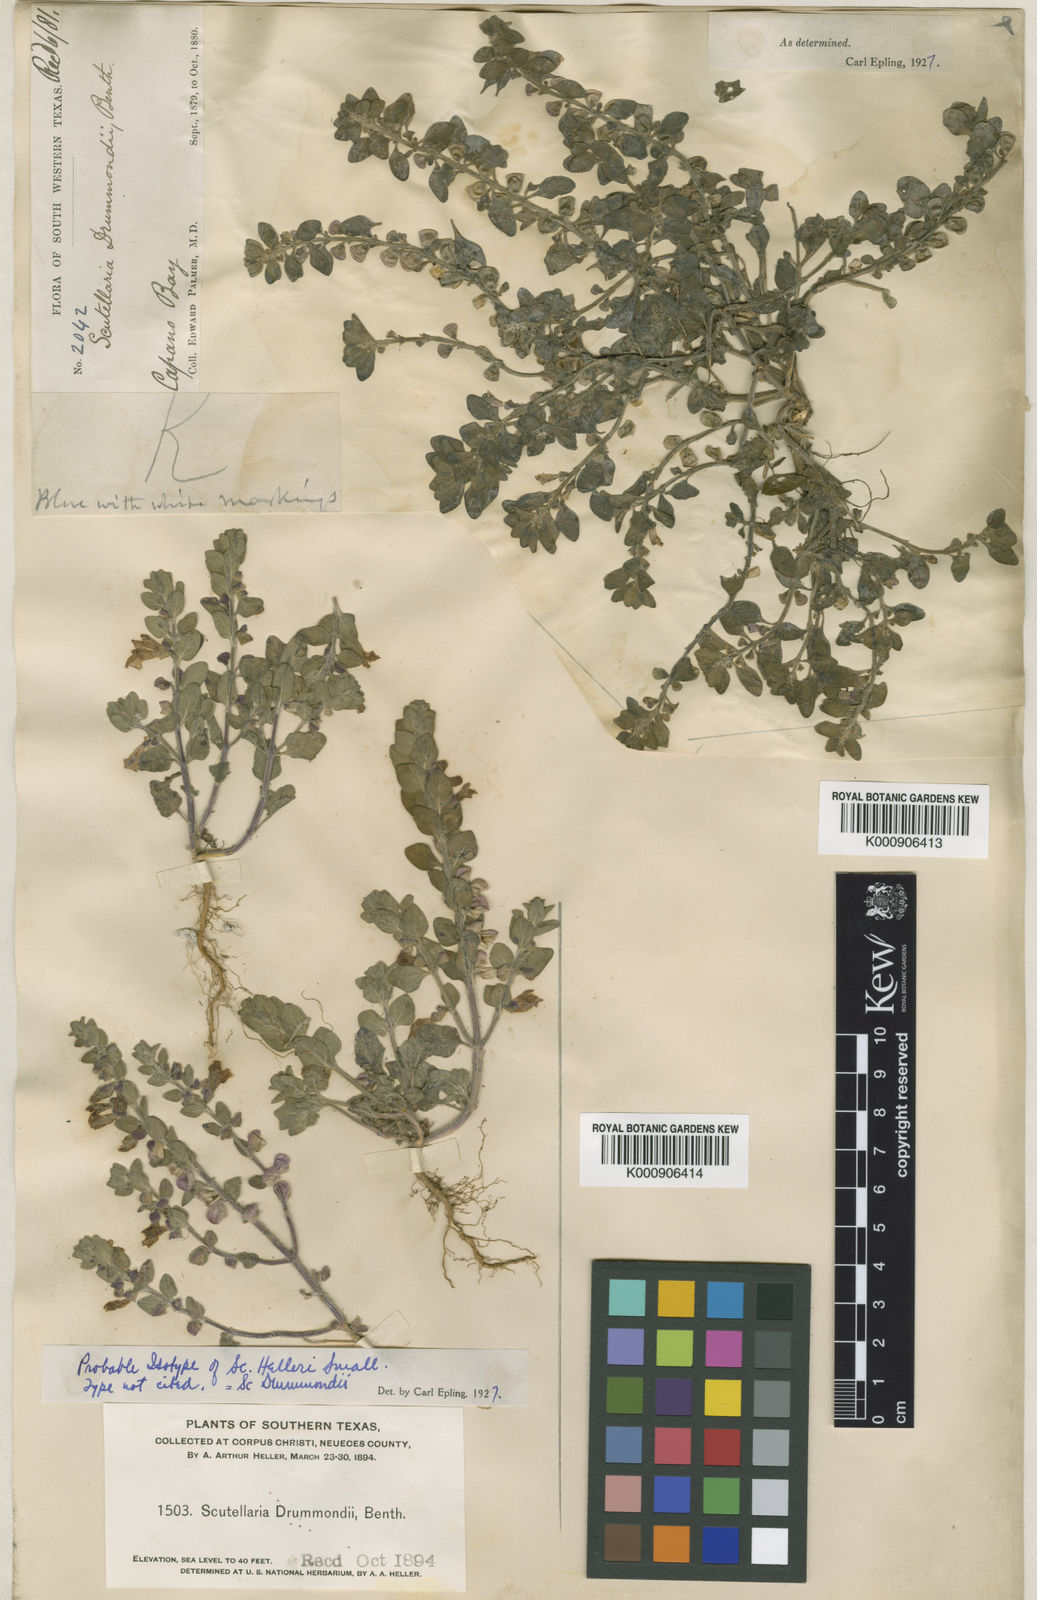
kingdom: Plantae
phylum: Tracheophyta
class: Magnoliopsida
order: Lamiales
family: Lamiaceae
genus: Scutellaria
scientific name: Scutellaria drummondii
